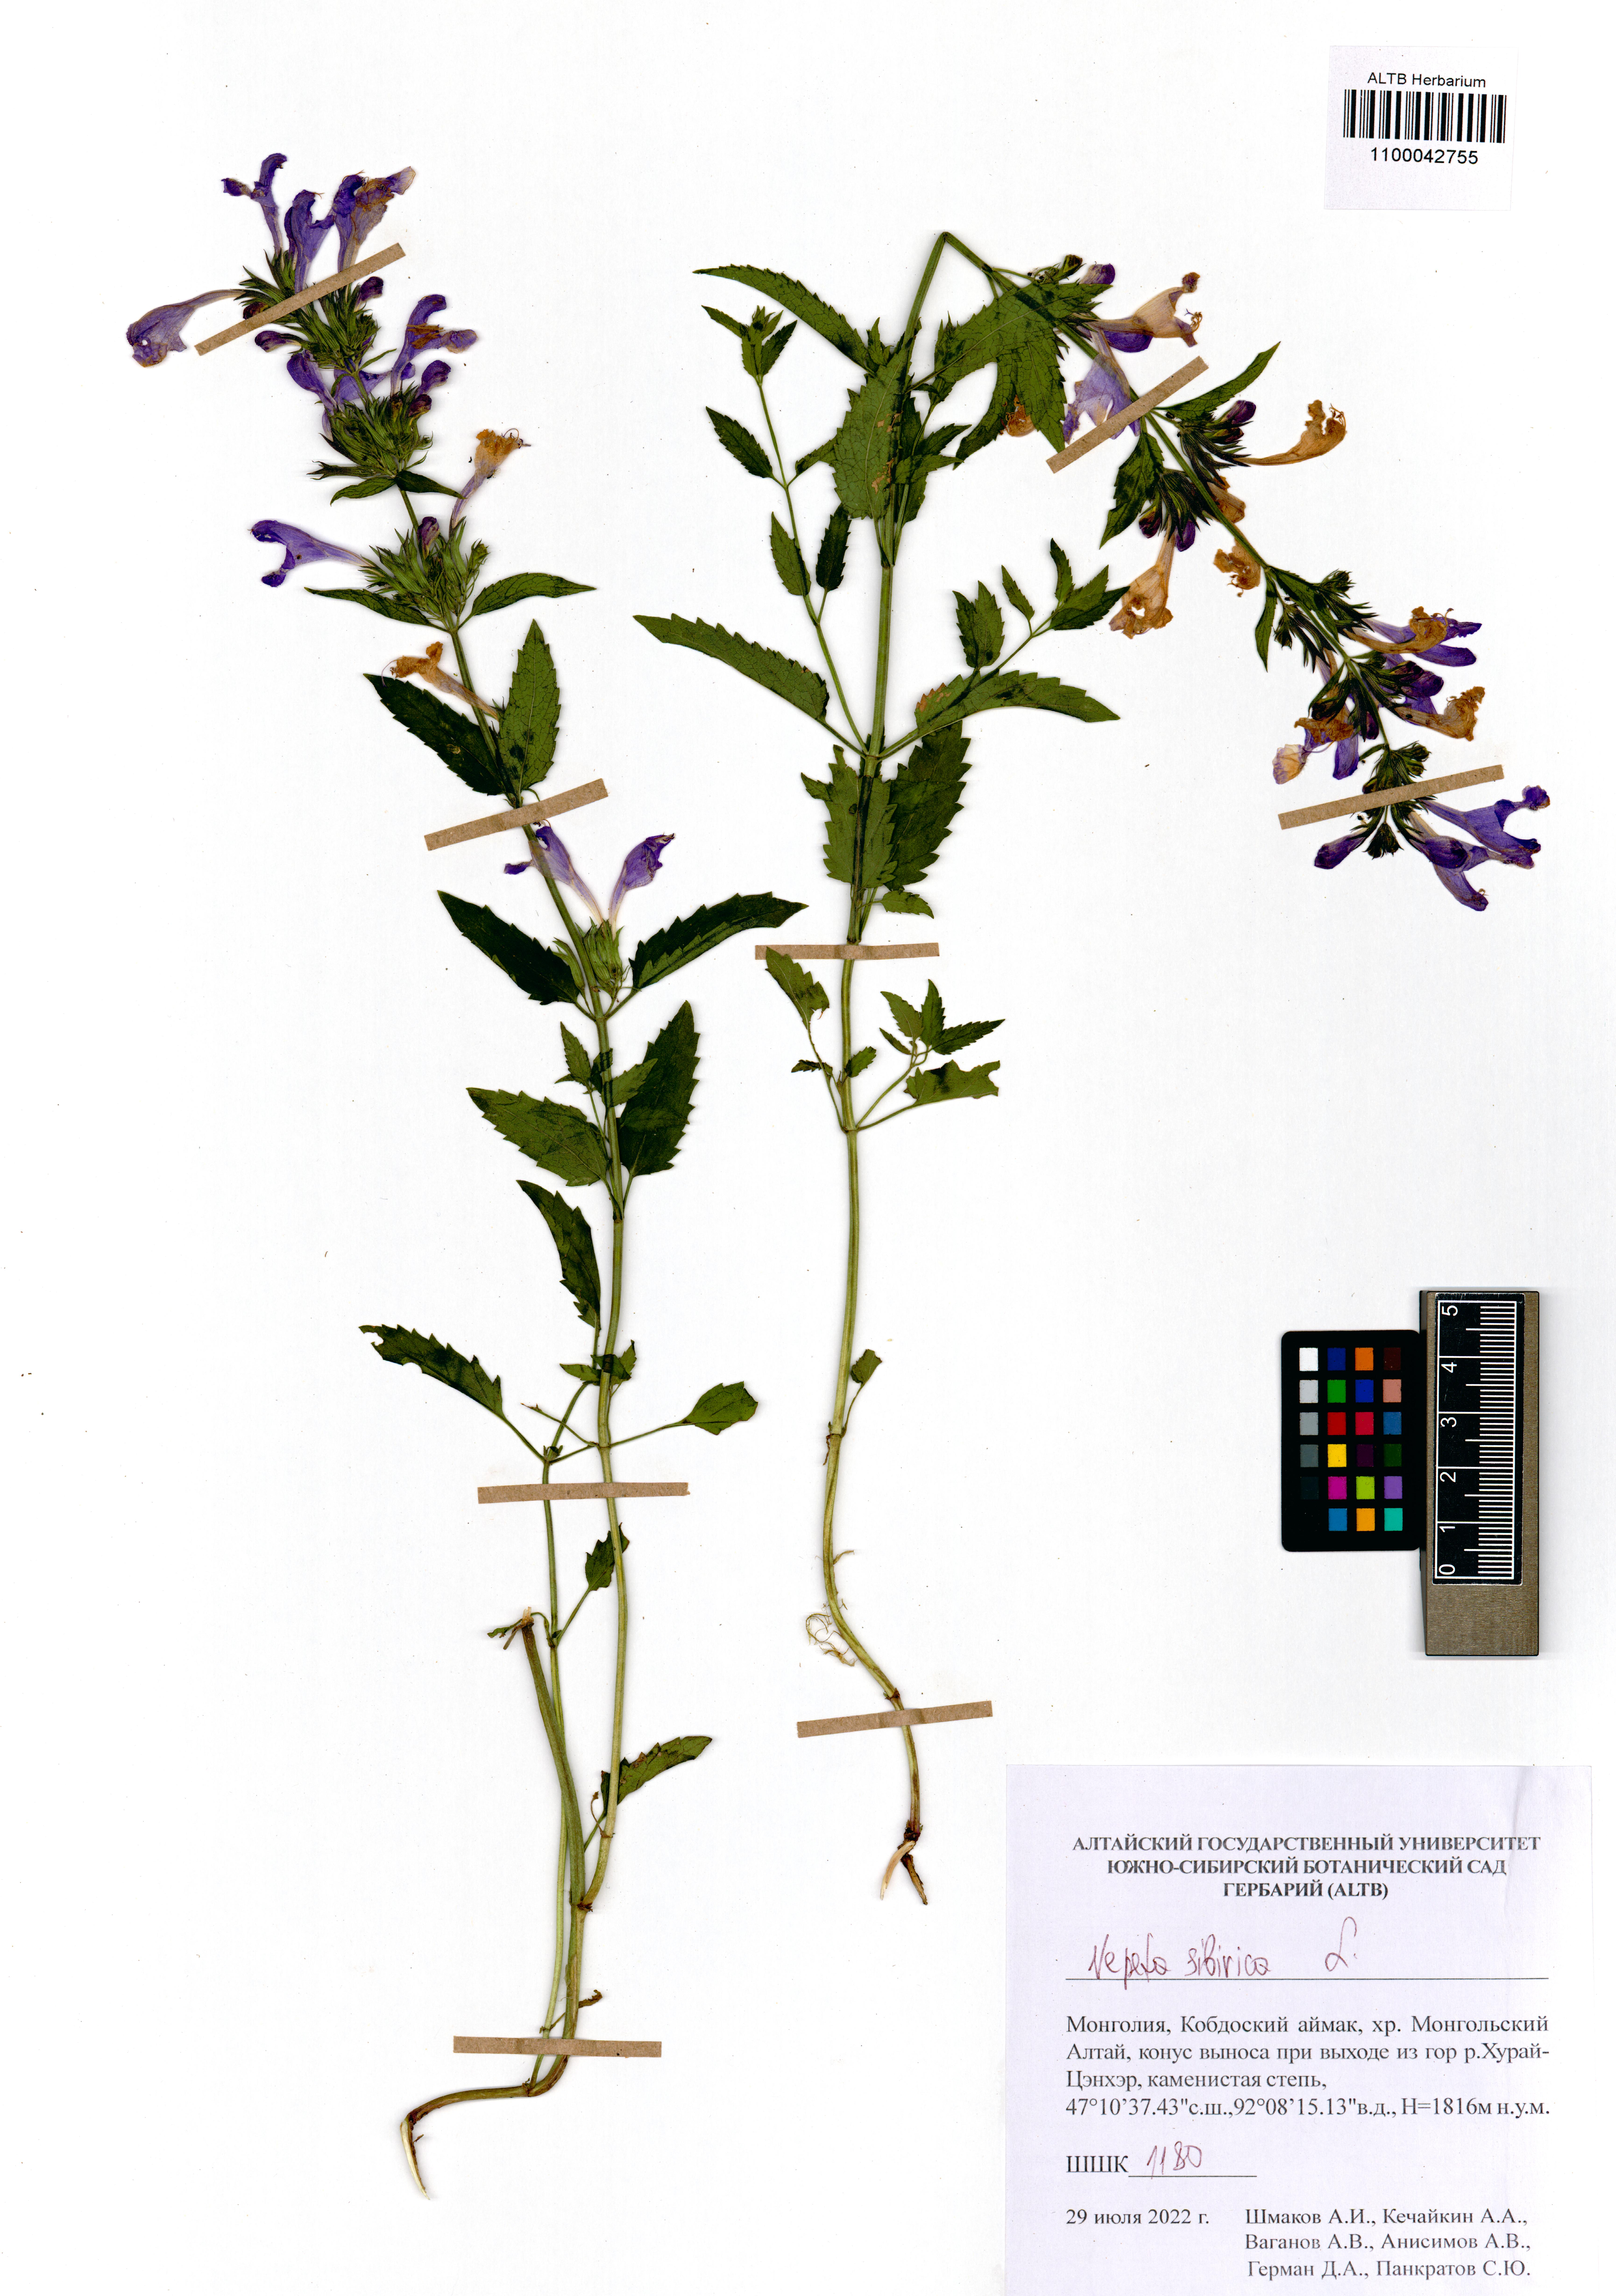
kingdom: Plantae
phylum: Tracheophyta
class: Magnoliopsida
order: Lamiales
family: Lamiaceae
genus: Nepeta
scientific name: Nepeta sibirica
